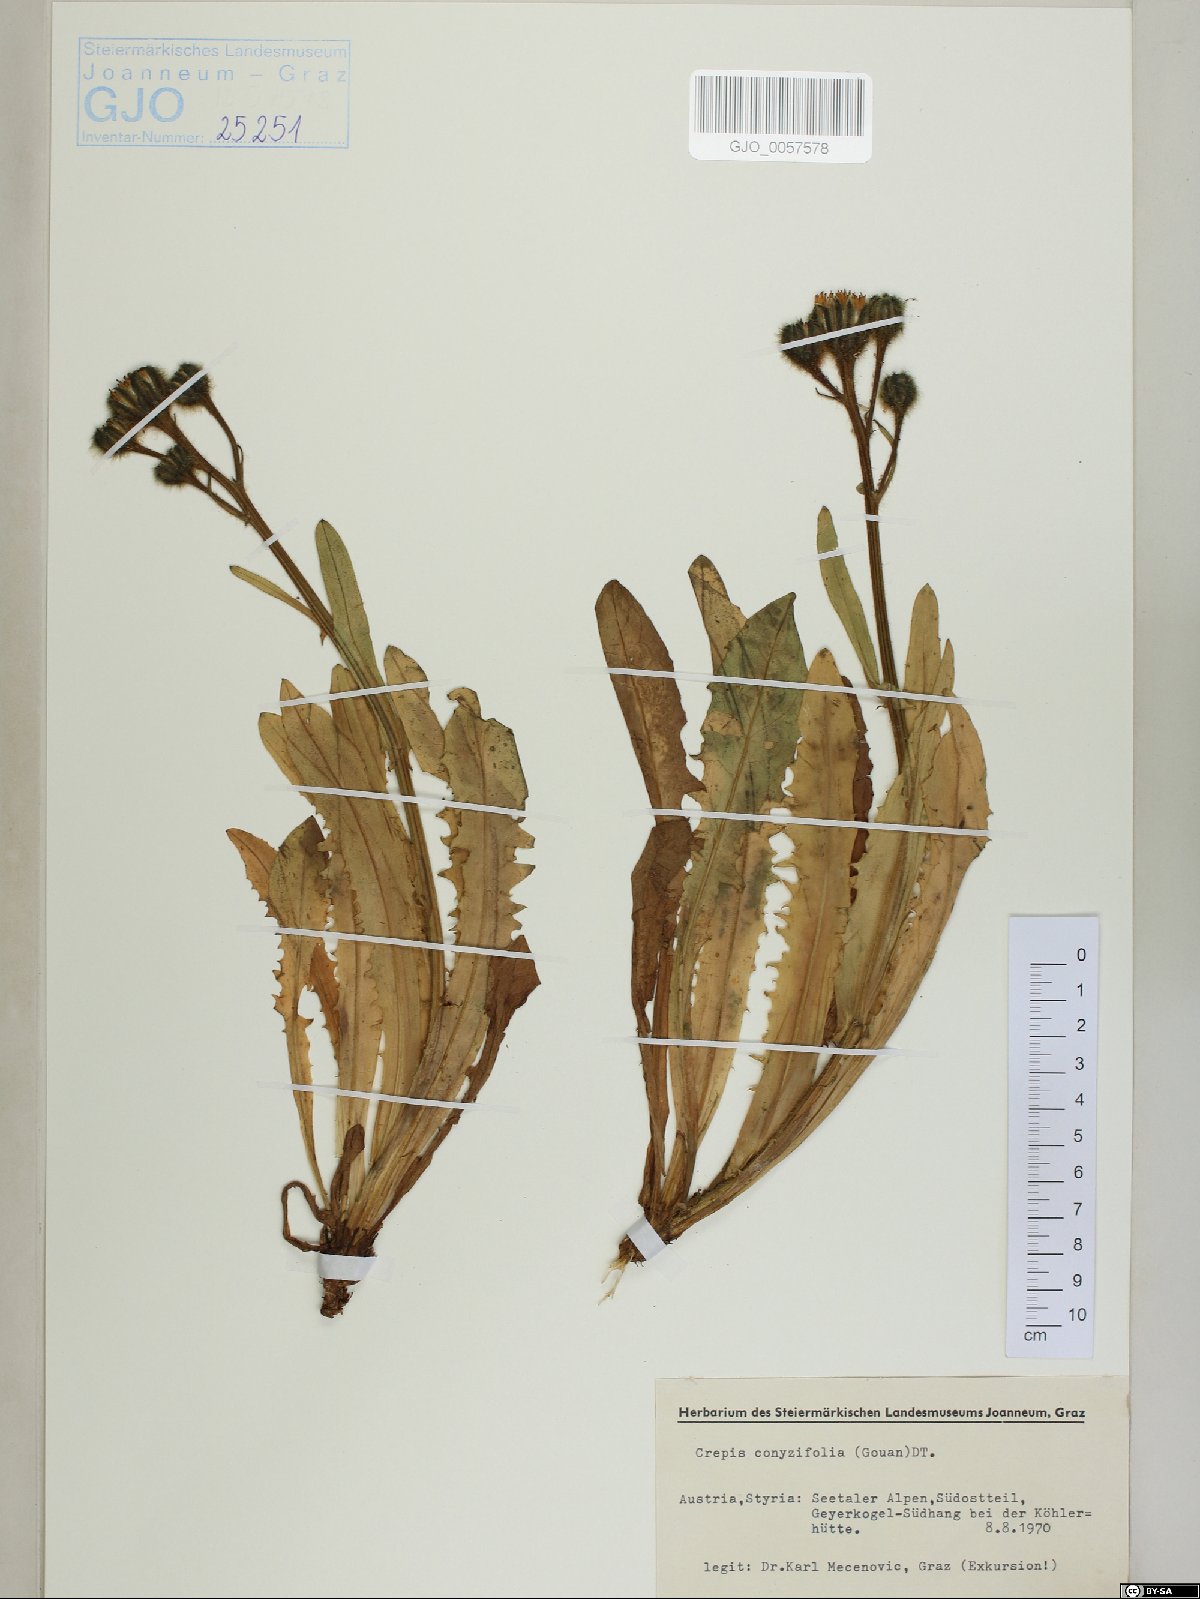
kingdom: Plantae
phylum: Tracheophyta
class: Magnoliopsida
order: Asterales
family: Asteraceae
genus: Crepis
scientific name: Crepis blattarioides
